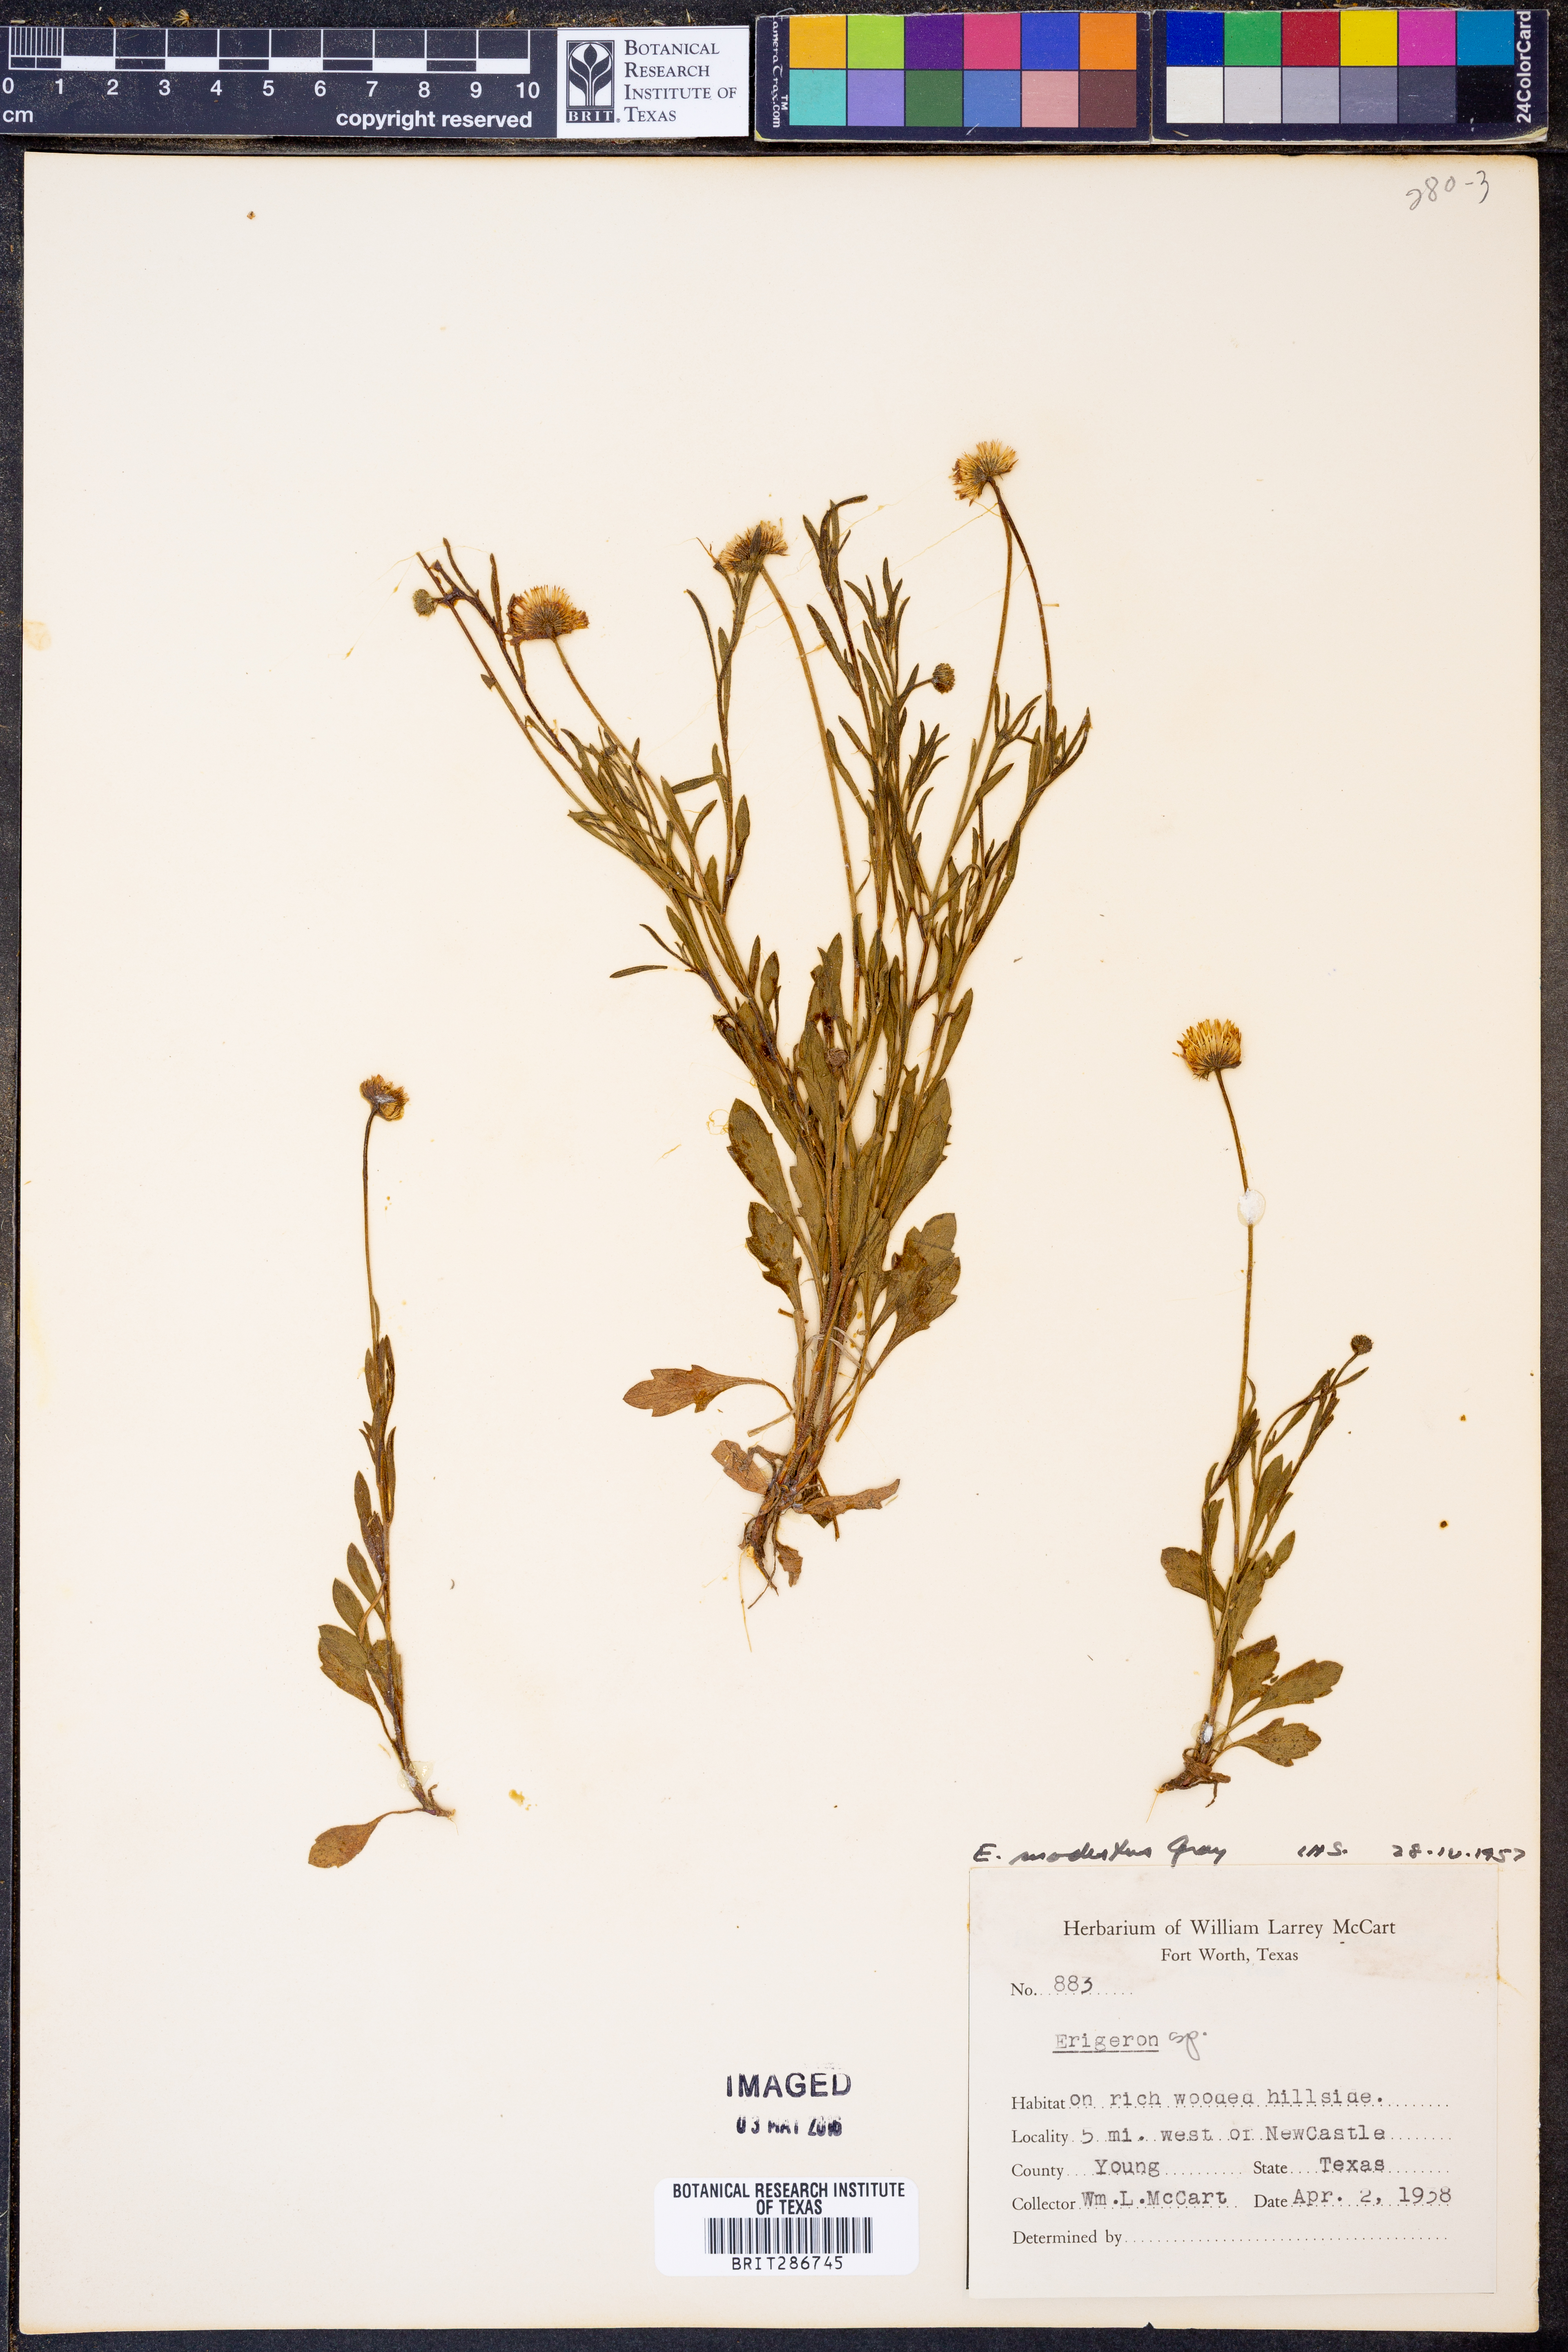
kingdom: Plantae
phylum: Tracheophyta
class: Magnoliopsida
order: Asterales
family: Asteraceae
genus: Erigeron
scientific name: Erigeron modestus
